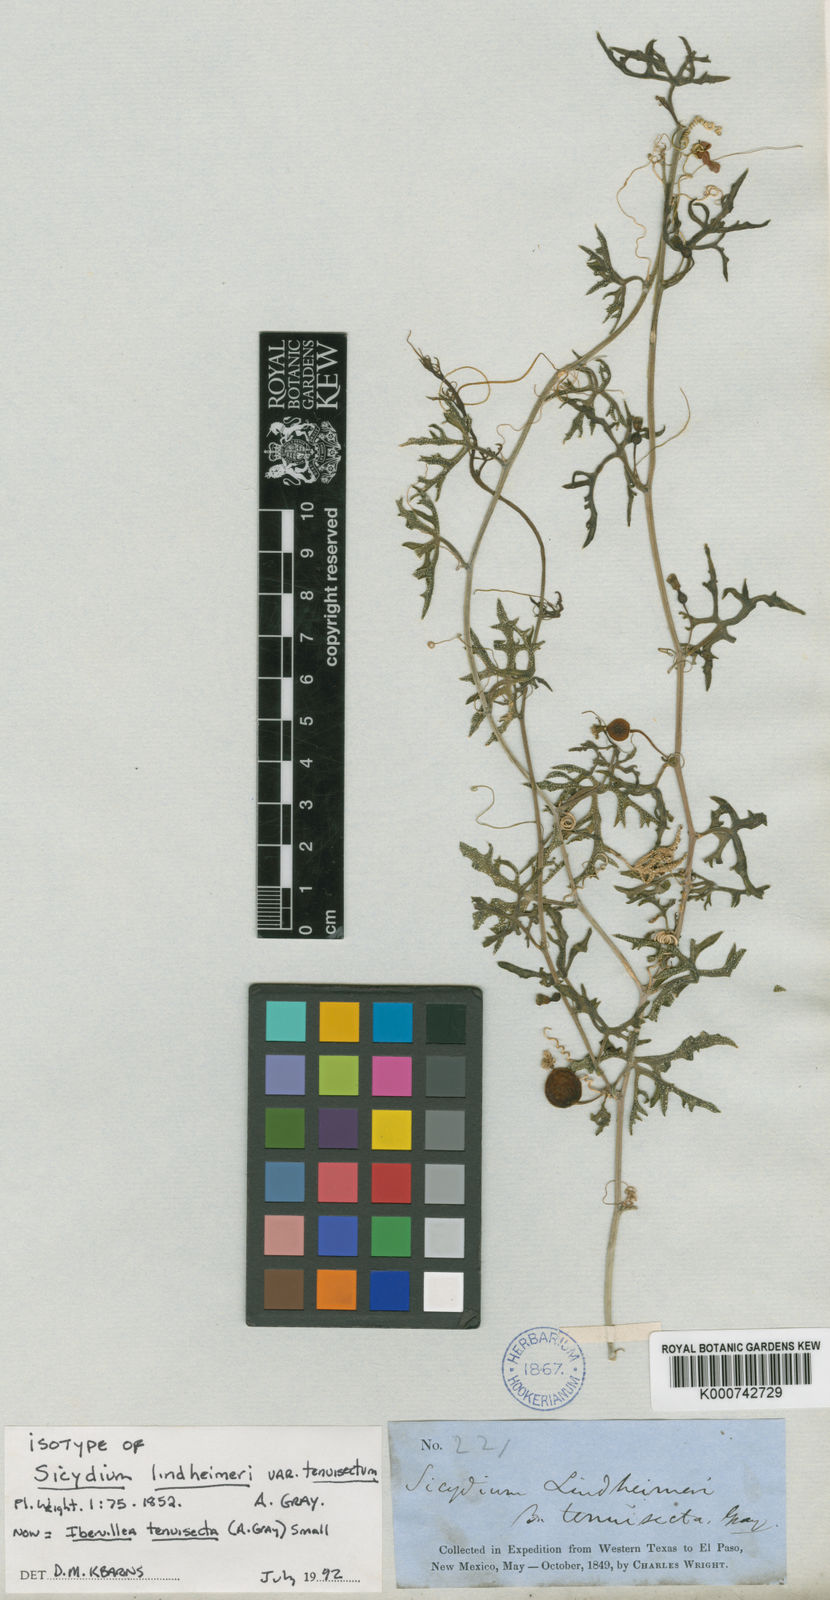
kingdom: Plantae
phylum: Tracheophyta
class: Magnoliopsida
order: Cucurbitales
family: Cucurbitaceae
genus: Ibervillea
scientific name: Ibervillea tenuisecta
